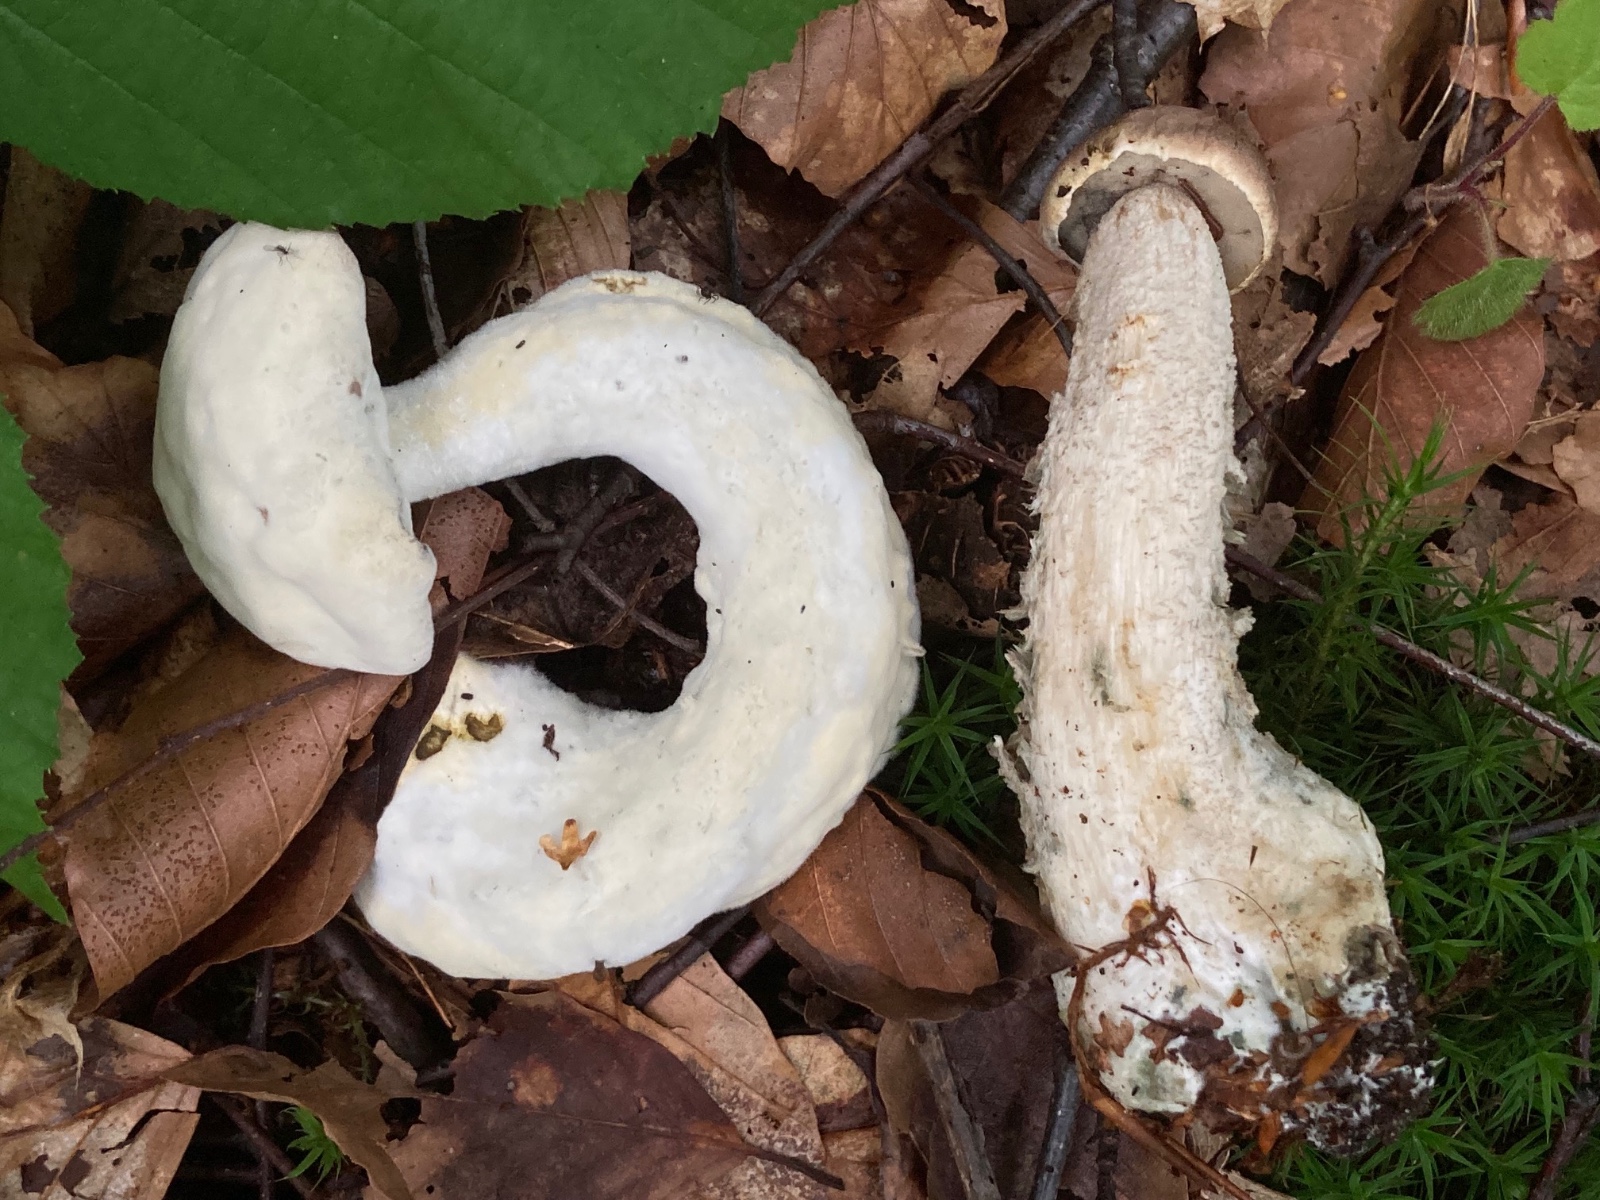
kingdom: Fungi
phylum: Ascomycota
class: Sordariomycetes
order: Hypocreales
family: Hypocreaceae
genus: Sepedonium
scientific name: Sepedonium
